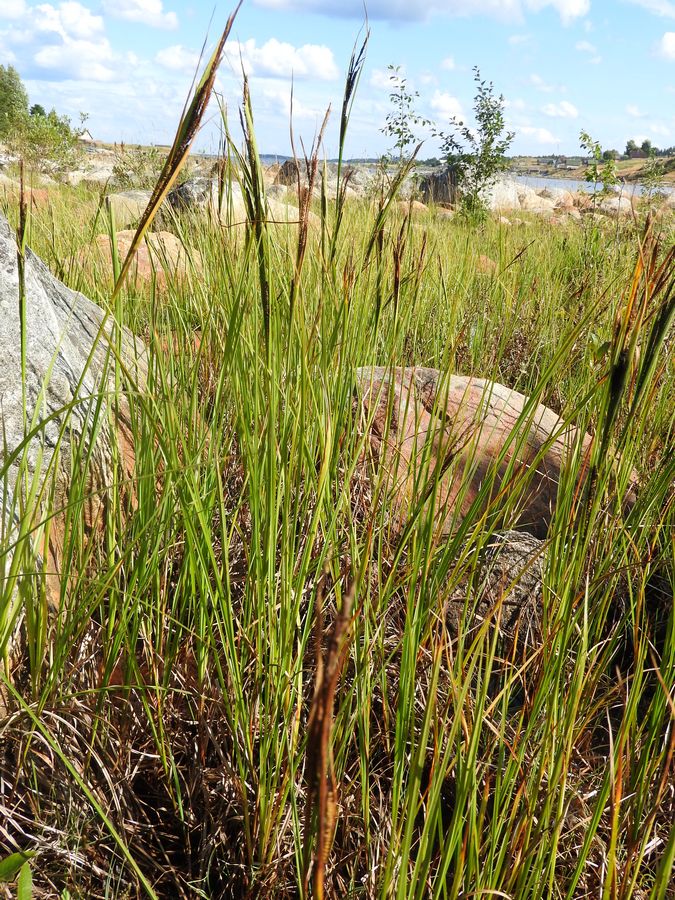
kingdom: Plantae
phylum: Tracheophyta
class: Liliopsida
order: Poales
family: Cyperaceae
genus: Carex
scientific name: Carex aquatilis
